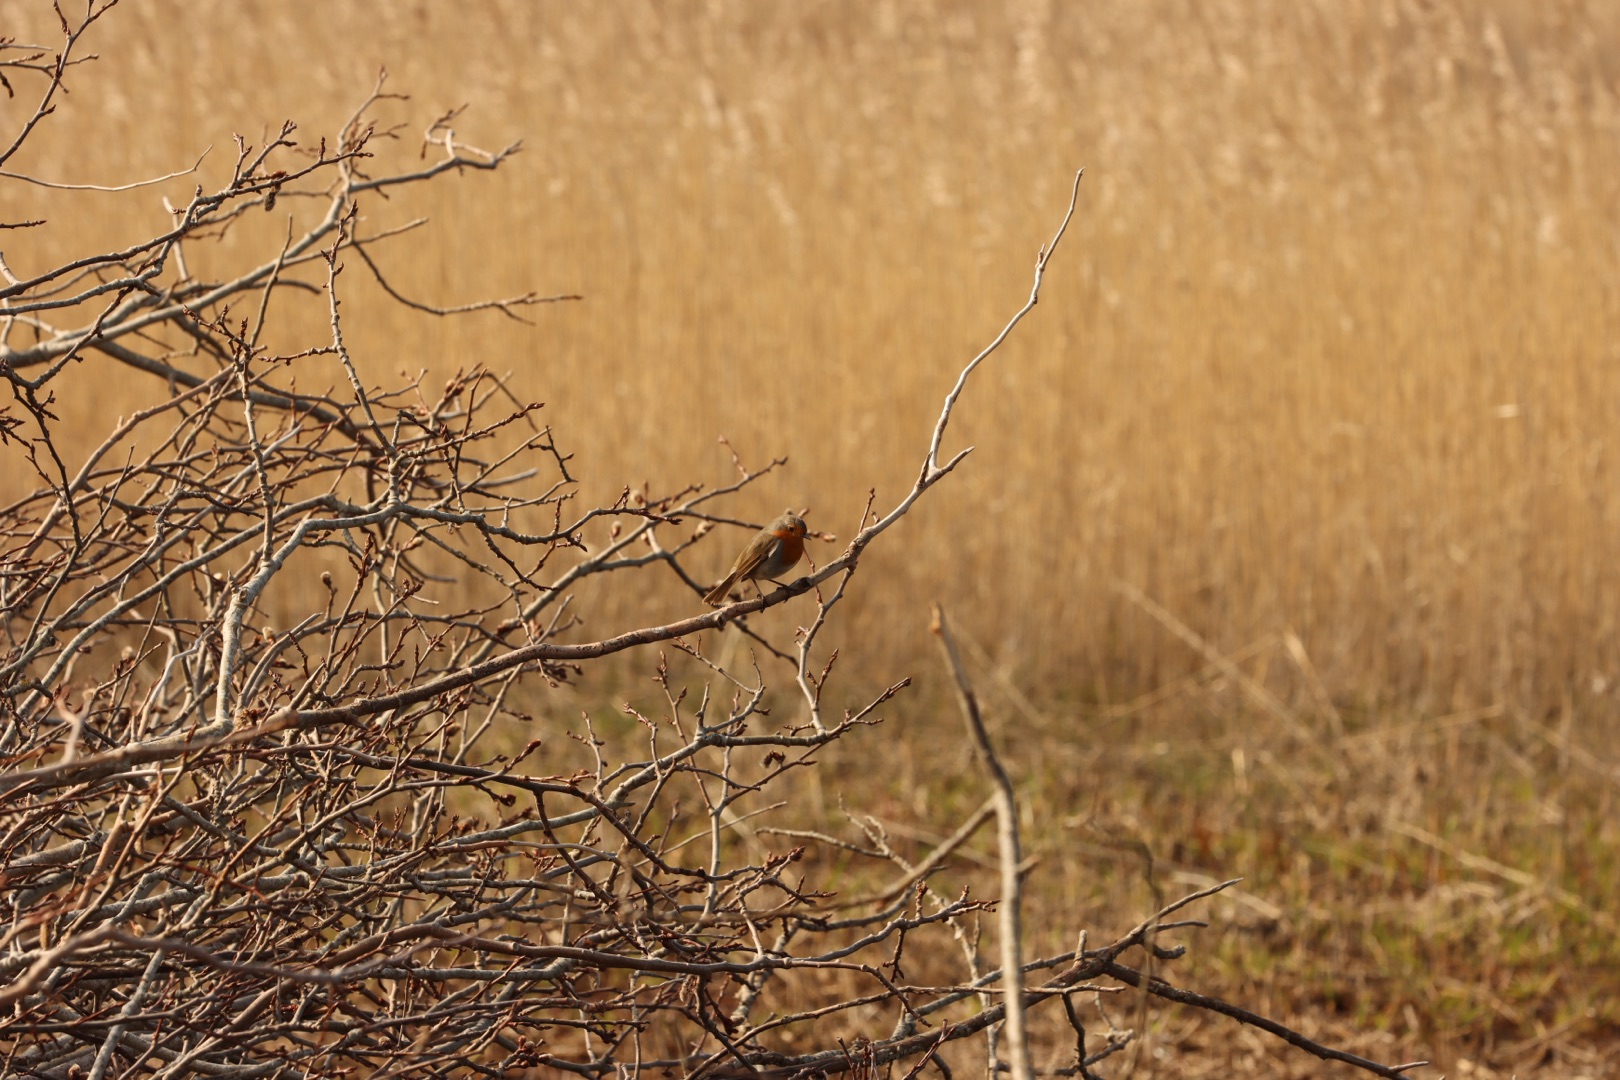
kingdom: Animalia
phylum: Chordata
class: Aves
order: Passeriformes
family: Muscicapidae
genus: Erithacus
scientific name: Erithacus rubecula
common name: Rødhals/rødkælk
